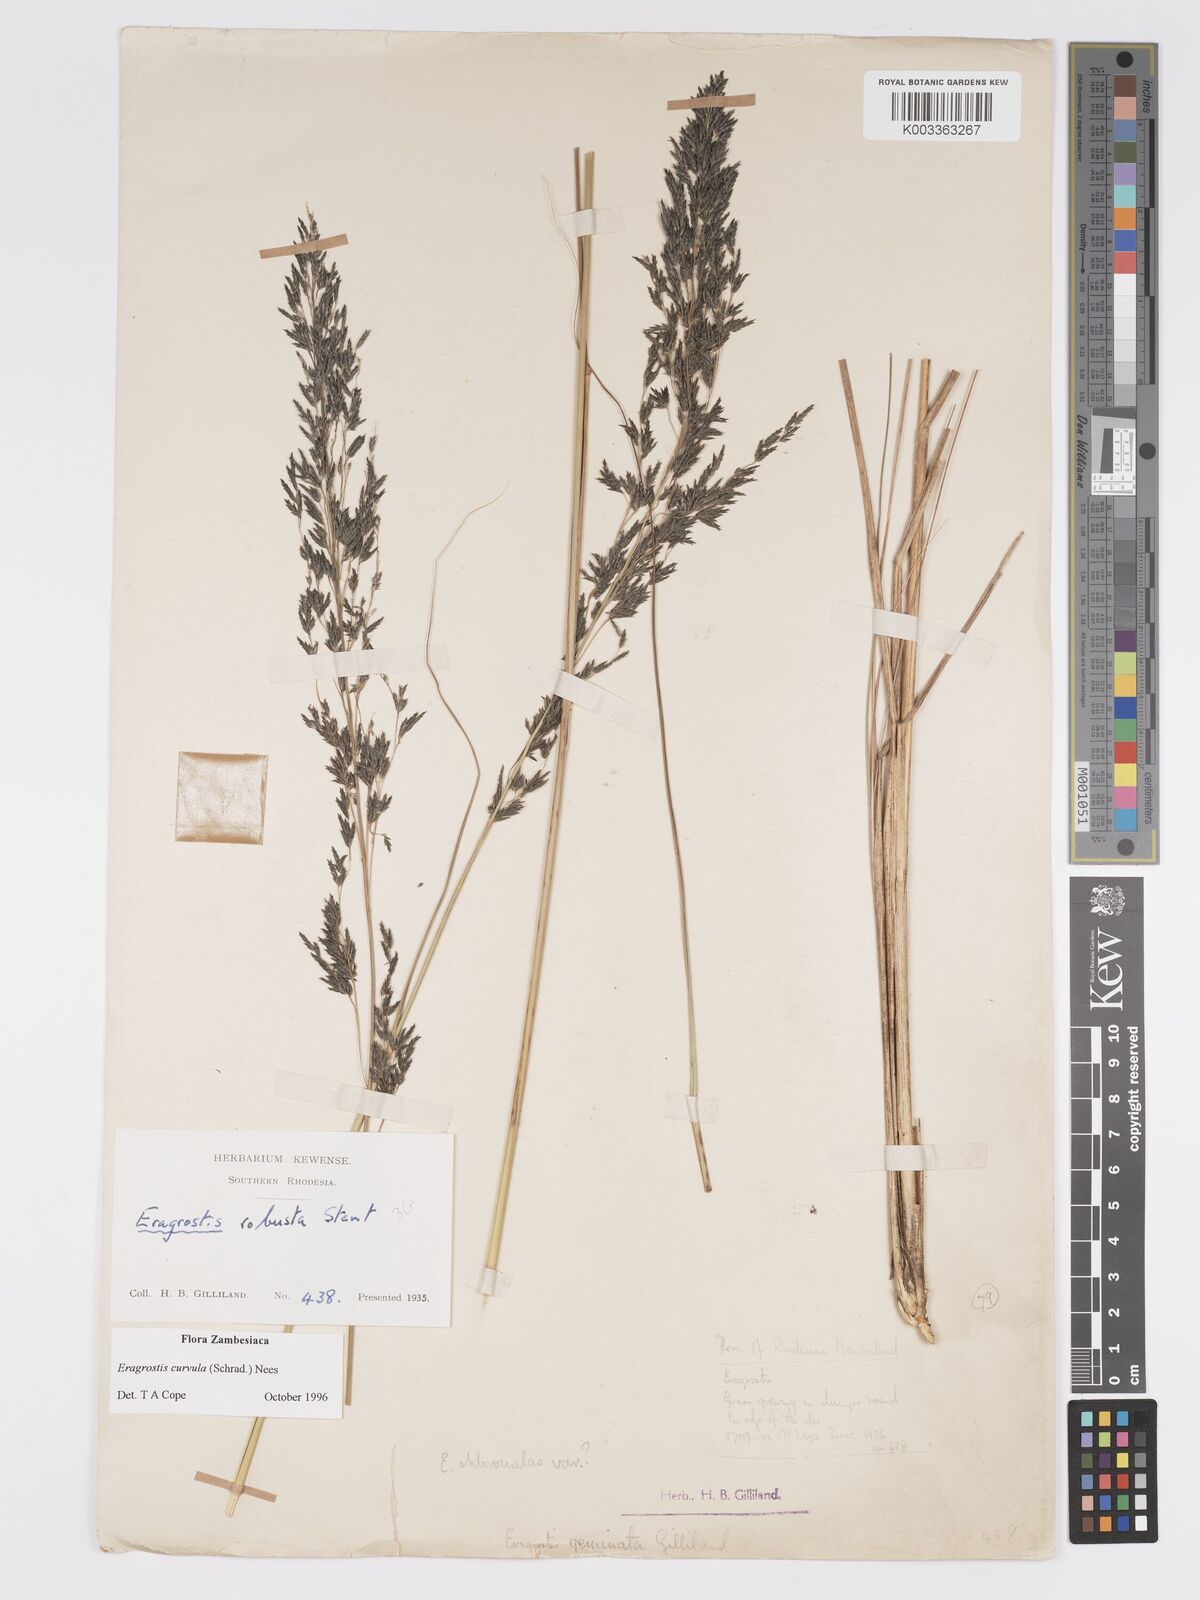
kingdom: Plantae
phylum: Tracheophyta
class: Liliopsida
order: Poales
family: Poaceae
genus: Eragrostis
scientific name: Eragrostis curvula
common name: African love-grass
